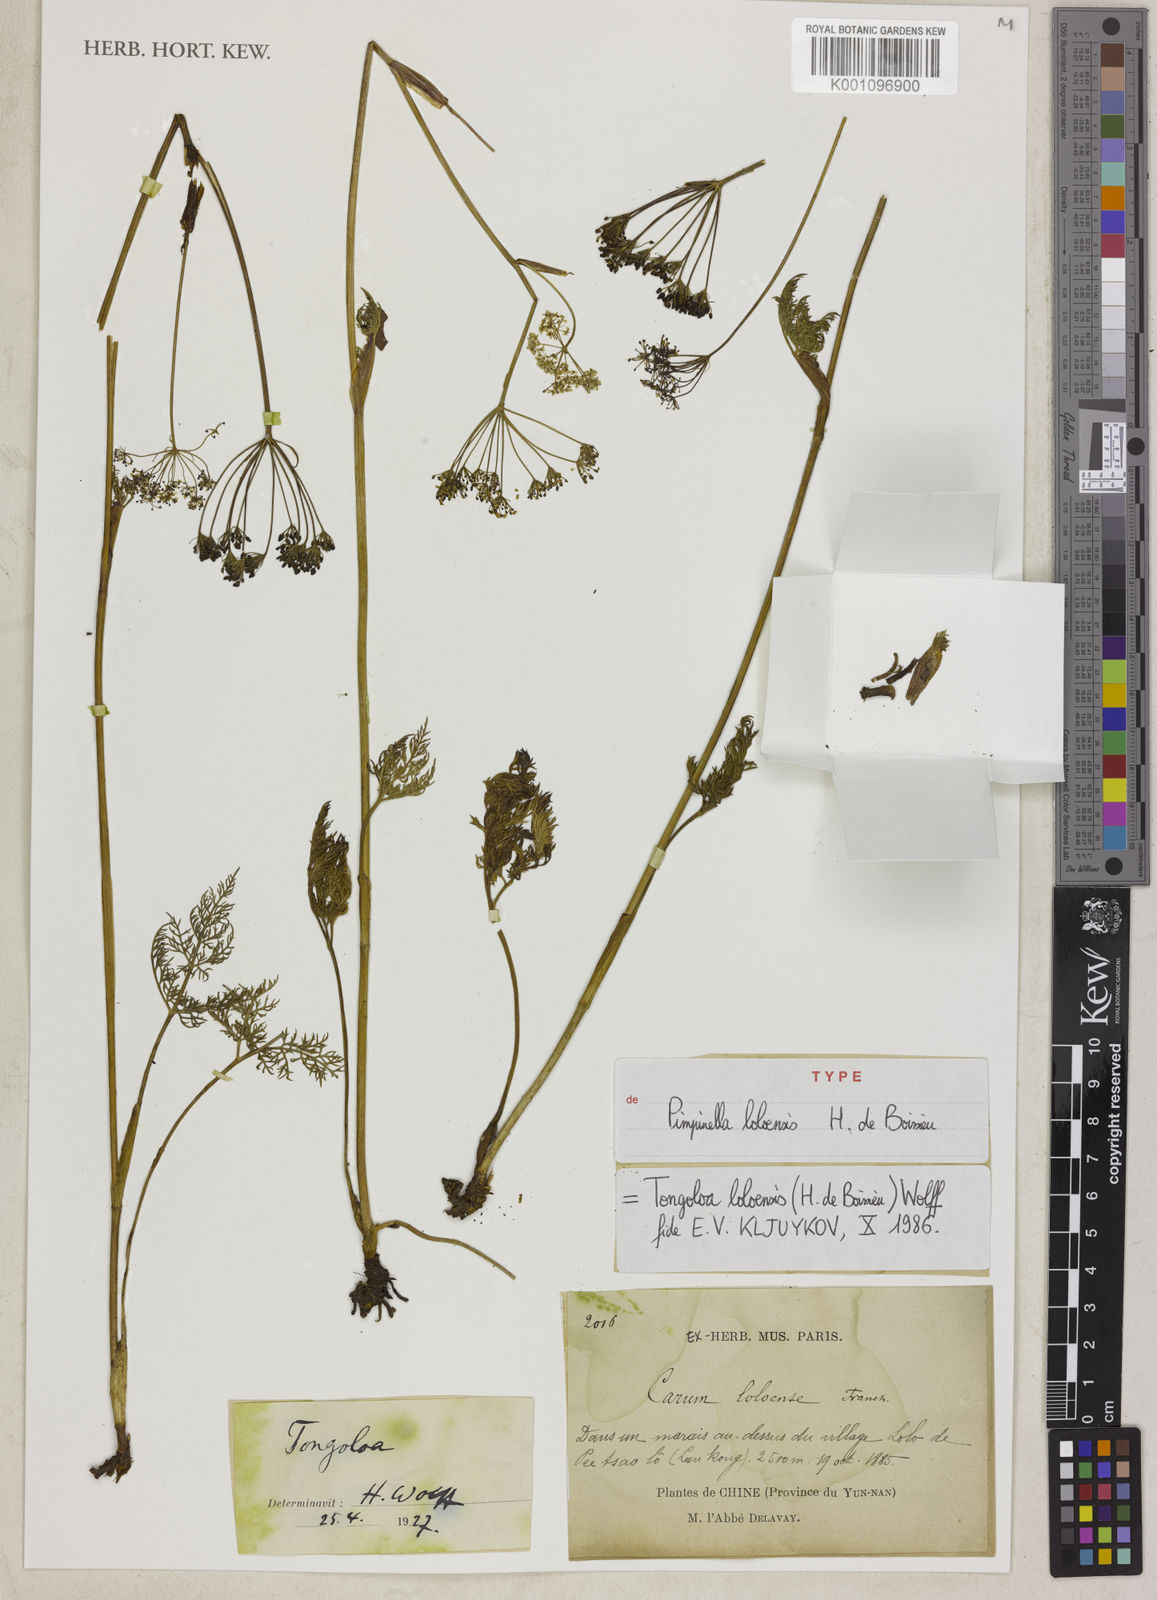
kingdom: Plantae
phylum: Tracheophyta
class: Magnoliopsida
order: Apiales
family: Apiaceae
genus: Tongoloa
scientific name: Tongoloa loloensis
